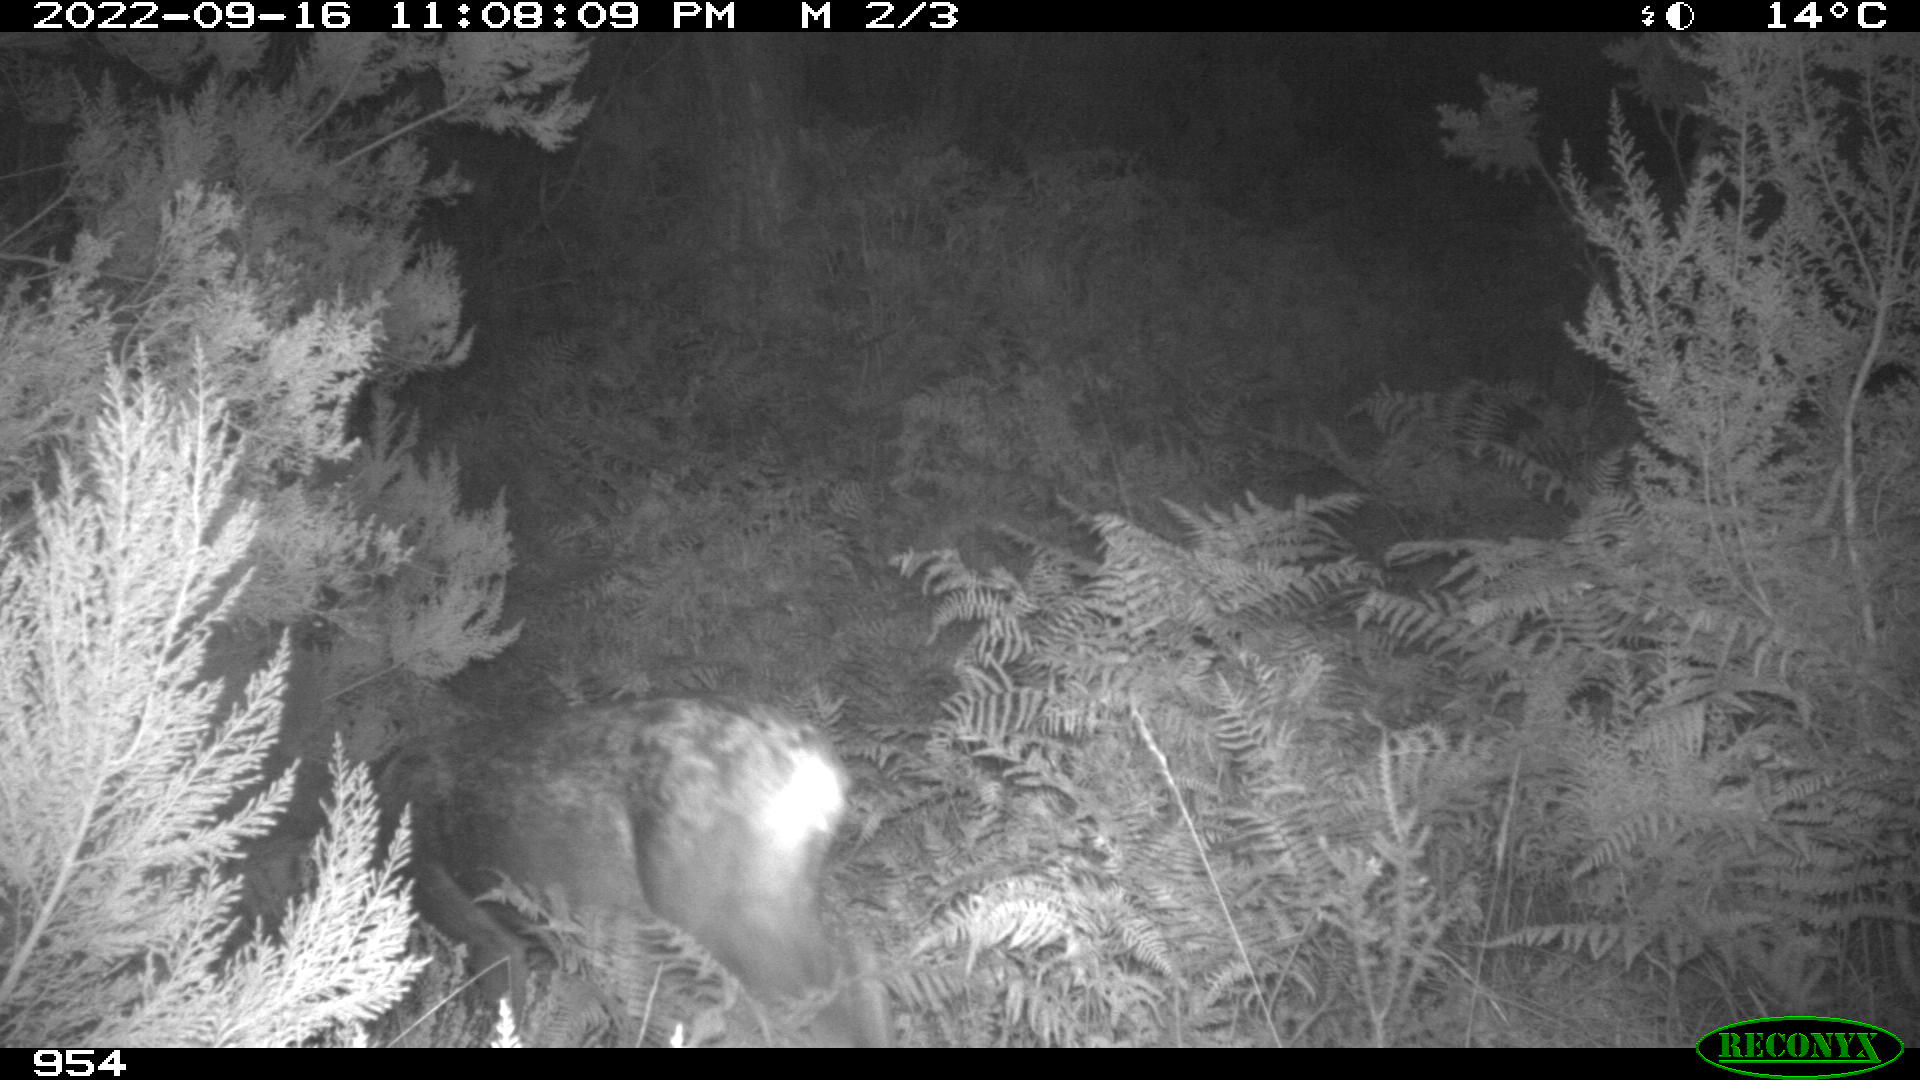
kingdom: Animalia
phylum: Chordata
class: Mammalia
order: Artiodactyla
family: Cervidae
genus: Capreolus
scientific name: Capreolus capreolus
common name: Western roe deer
